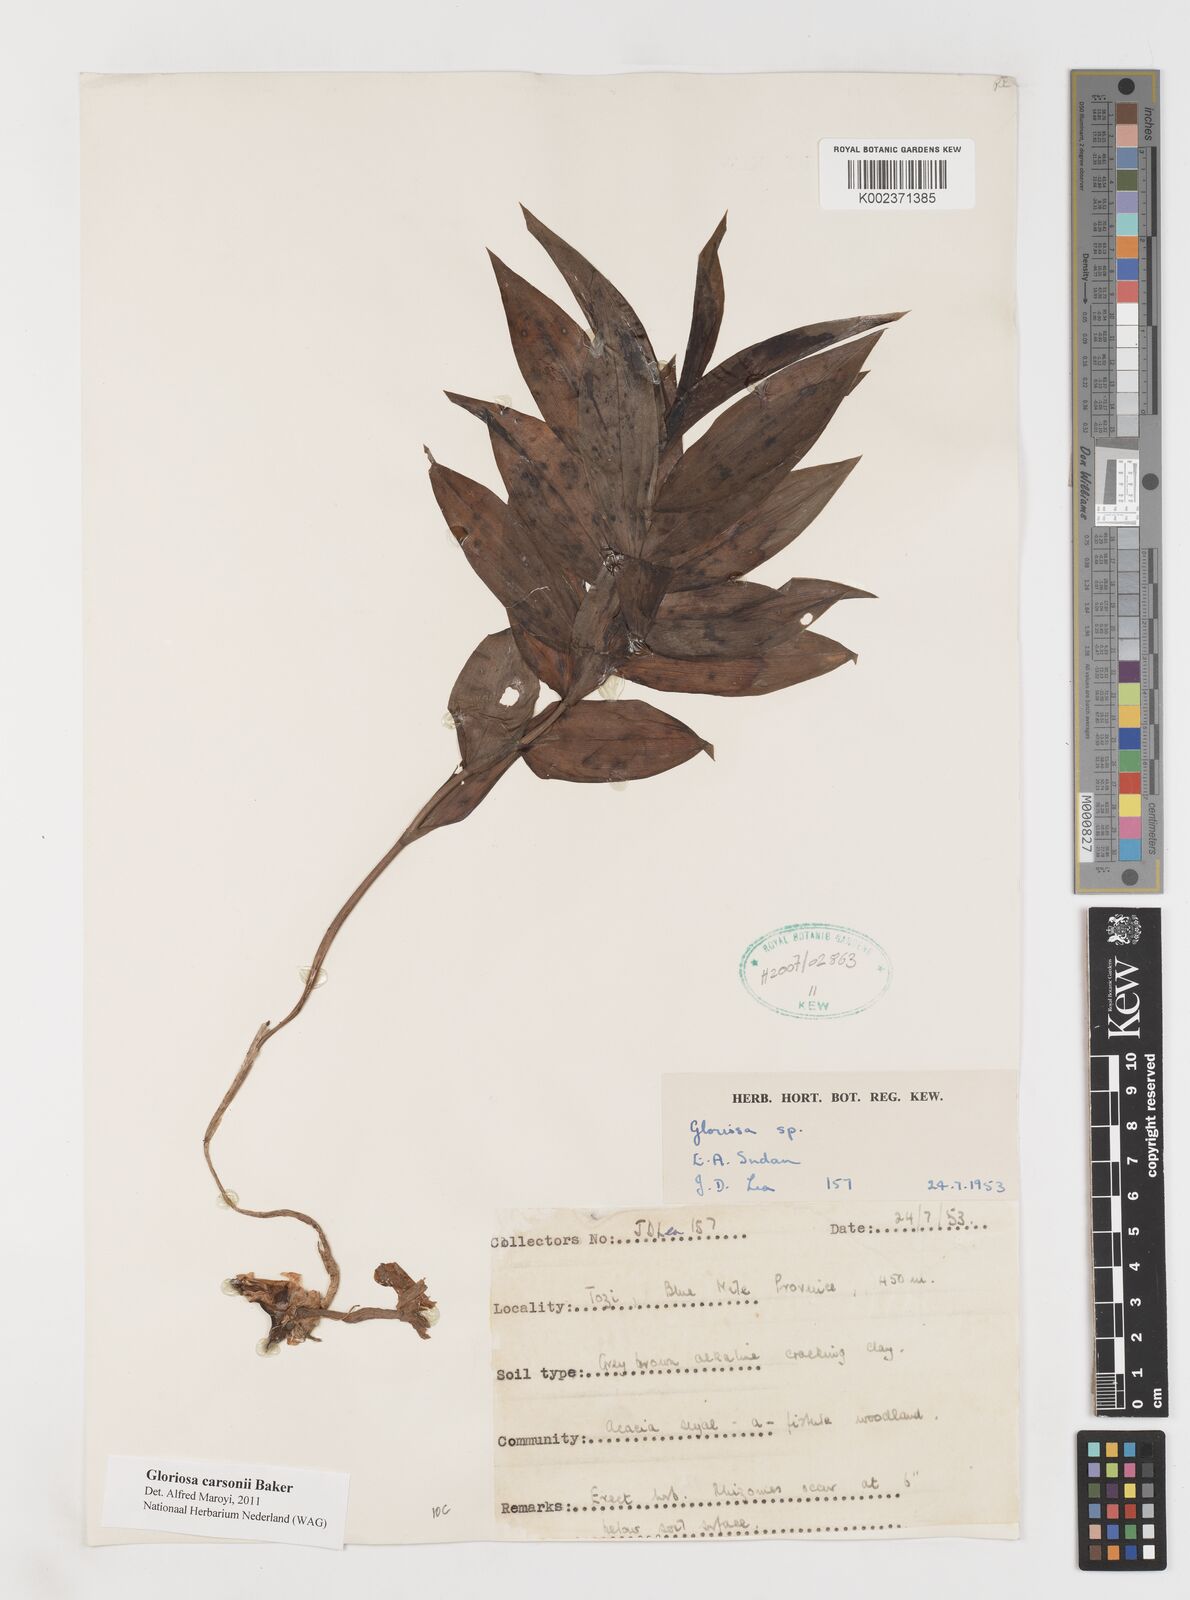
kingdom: Plantae
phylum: Tracheophyta
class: Liliopsida
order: Liliales
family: Colchicaceae
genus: Gloriosa
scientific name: Gloriosa carsonii
